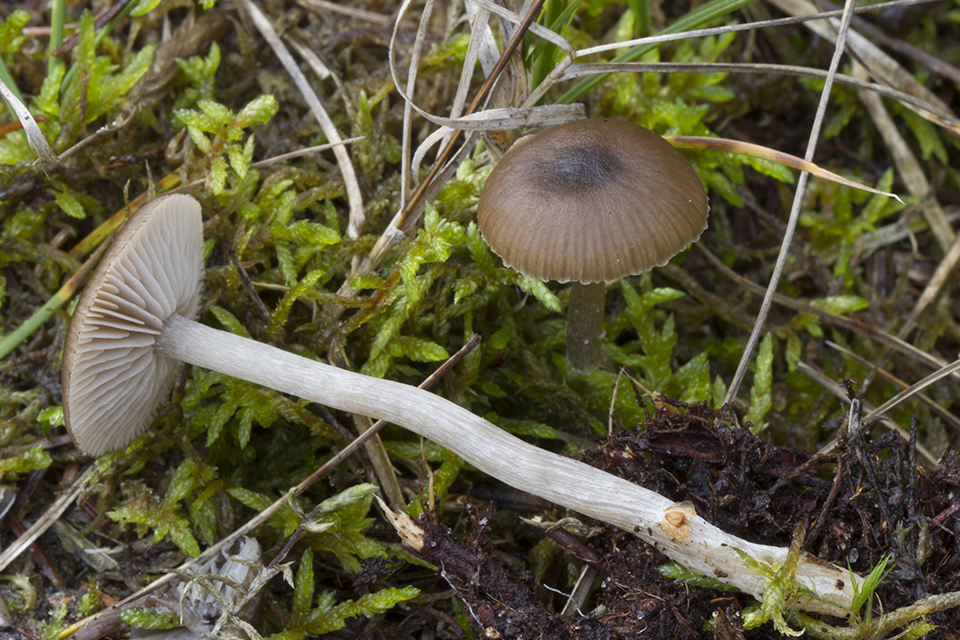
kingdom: Fungi
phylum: Basidiomycota
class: Agaricomycetes
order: Agaricales
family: Entolomataceae
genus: Entocybe
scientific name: Entocybe vinacea
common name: november-rødblad
